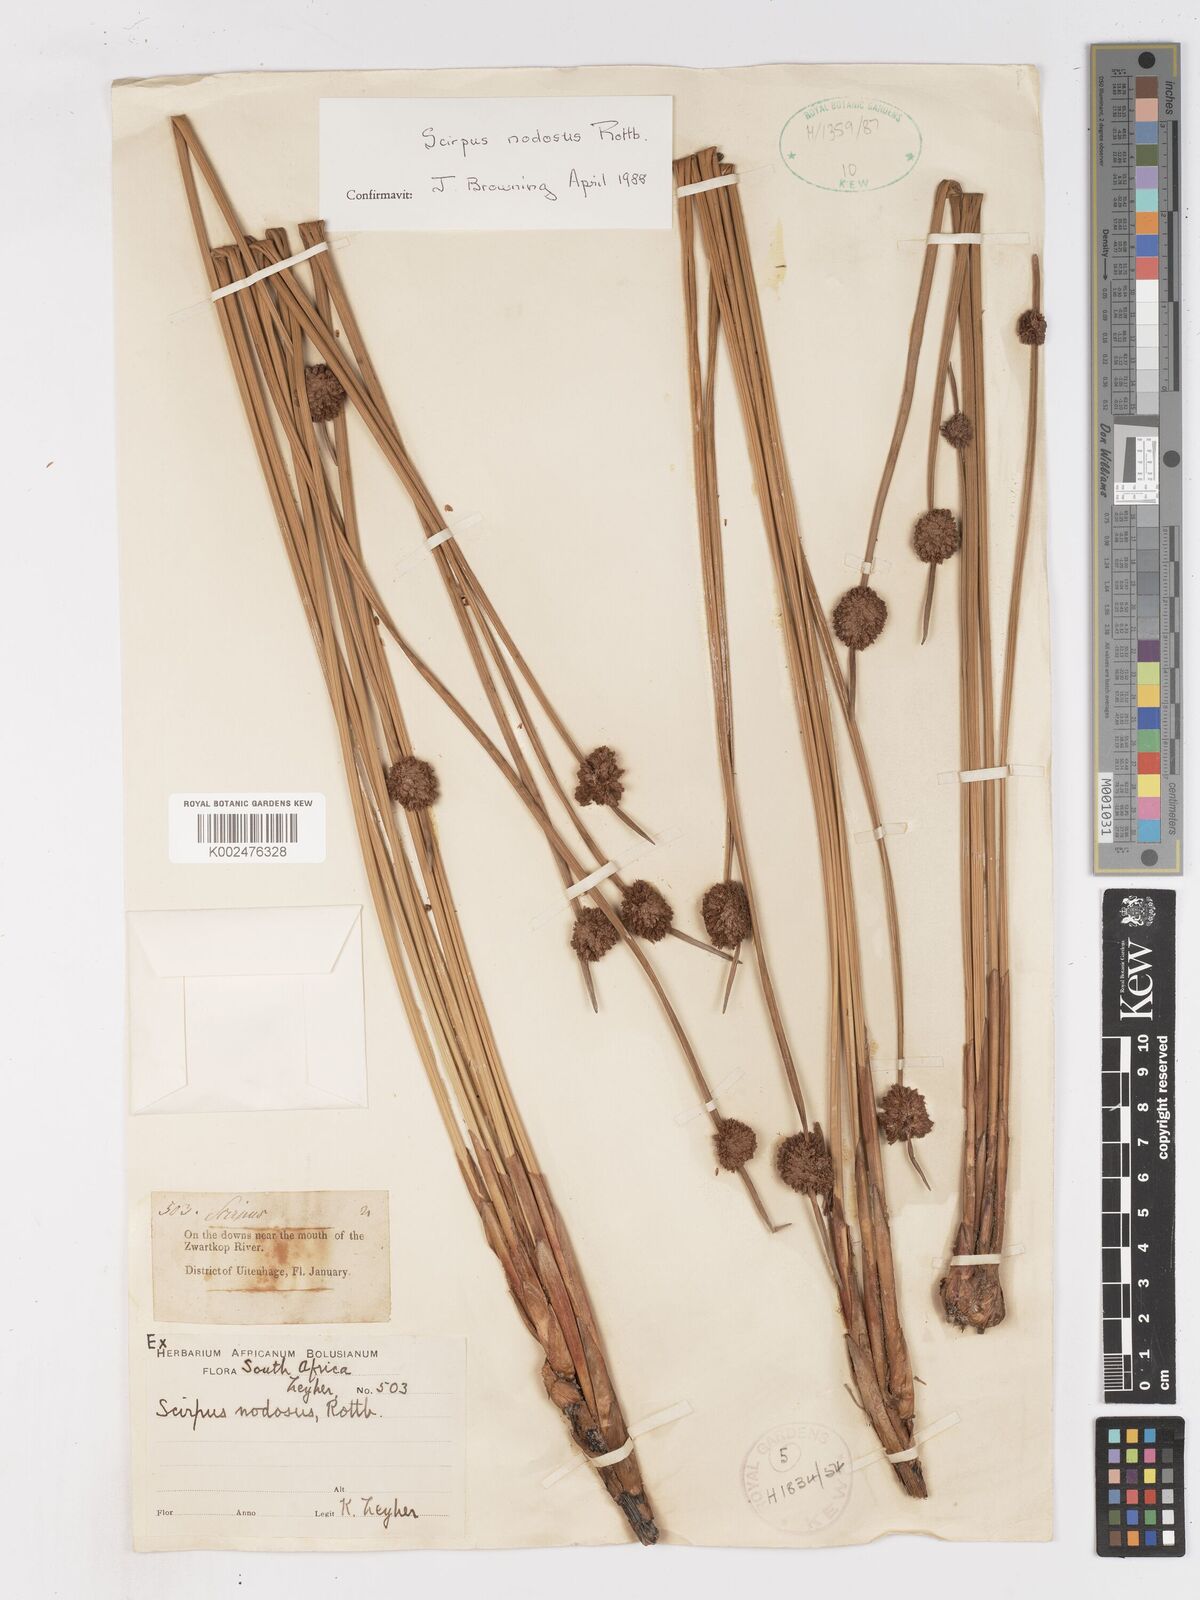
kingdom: Plantae
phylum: Tracheophyta
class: Liliopsida
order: Poales
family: Cyperaceae
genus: Ficinia
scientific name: Ficinia nodosa
